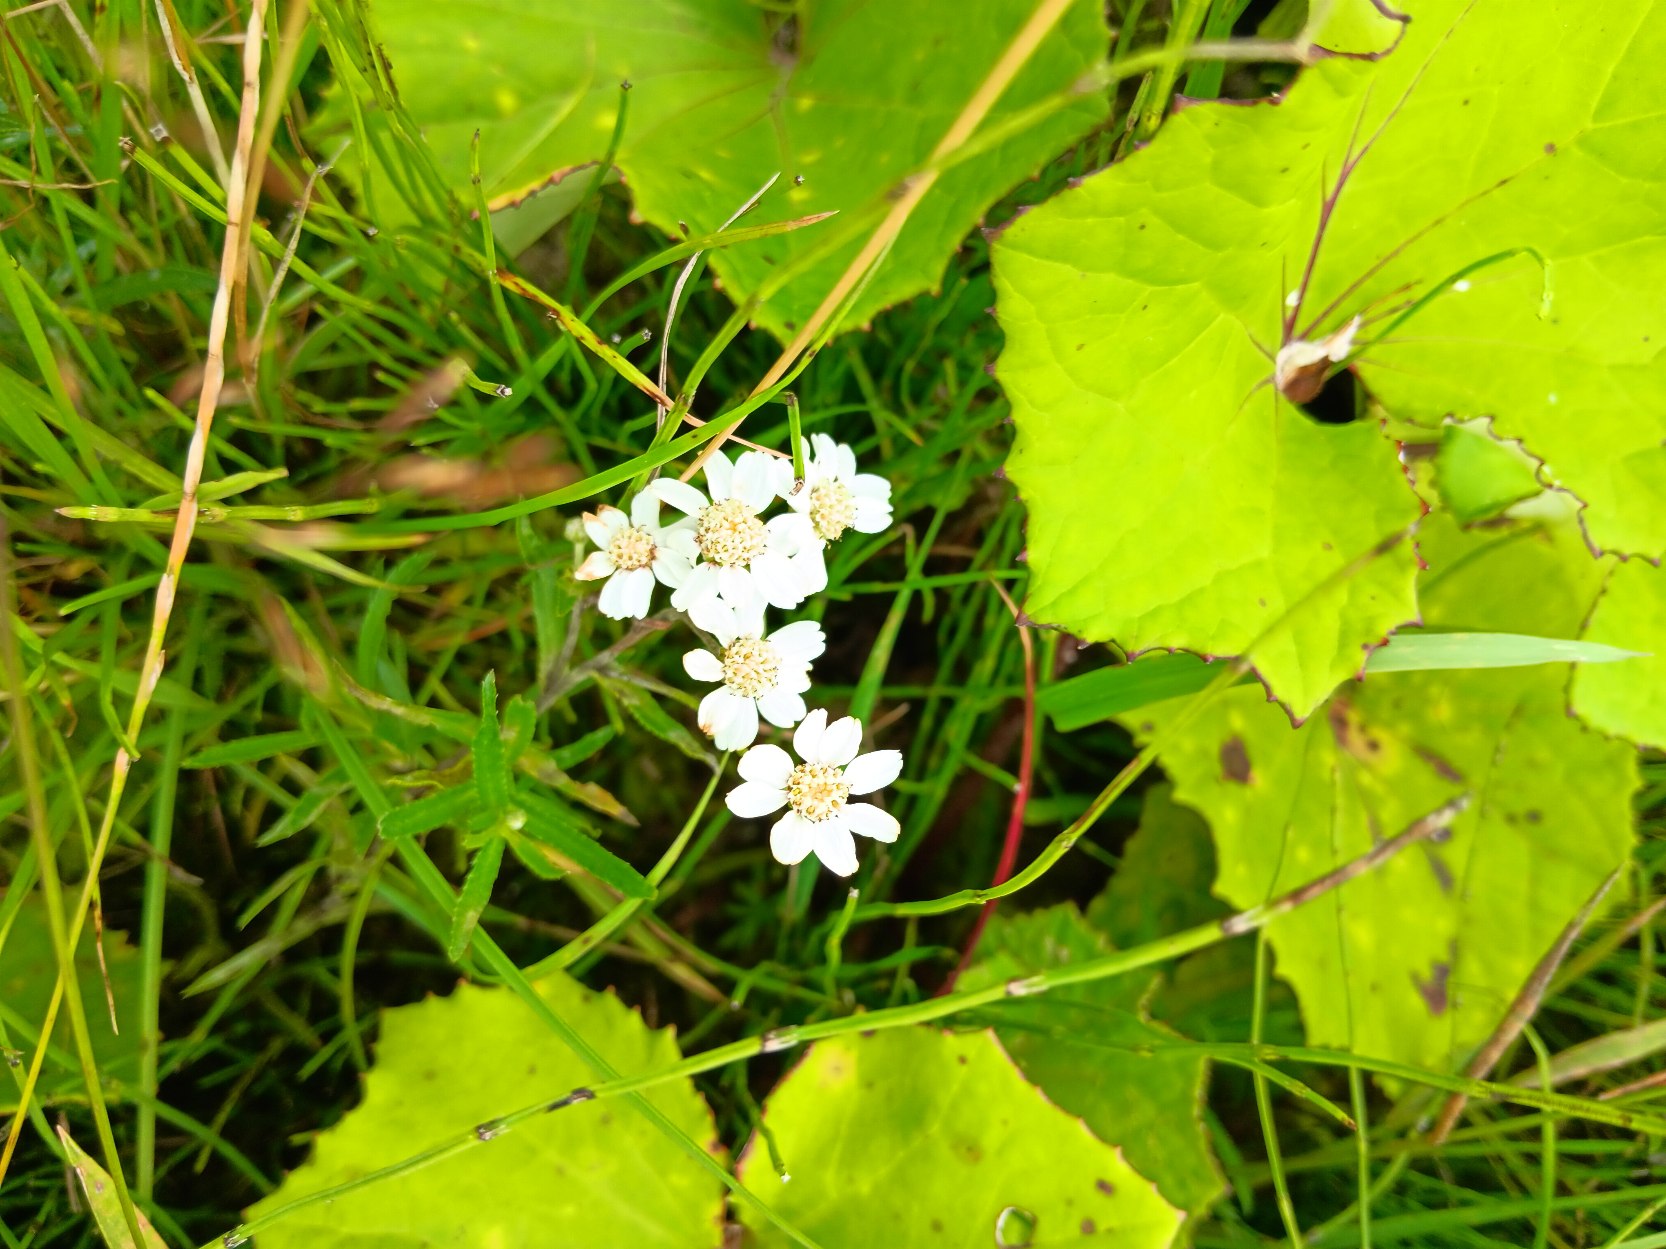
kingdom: Plantae
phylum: Tracheophyta
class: Magnoliopsida
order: Asterales
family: Asteraceae
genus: Achillea
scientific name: Achillea ptarmica
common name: Nyse-røllike
